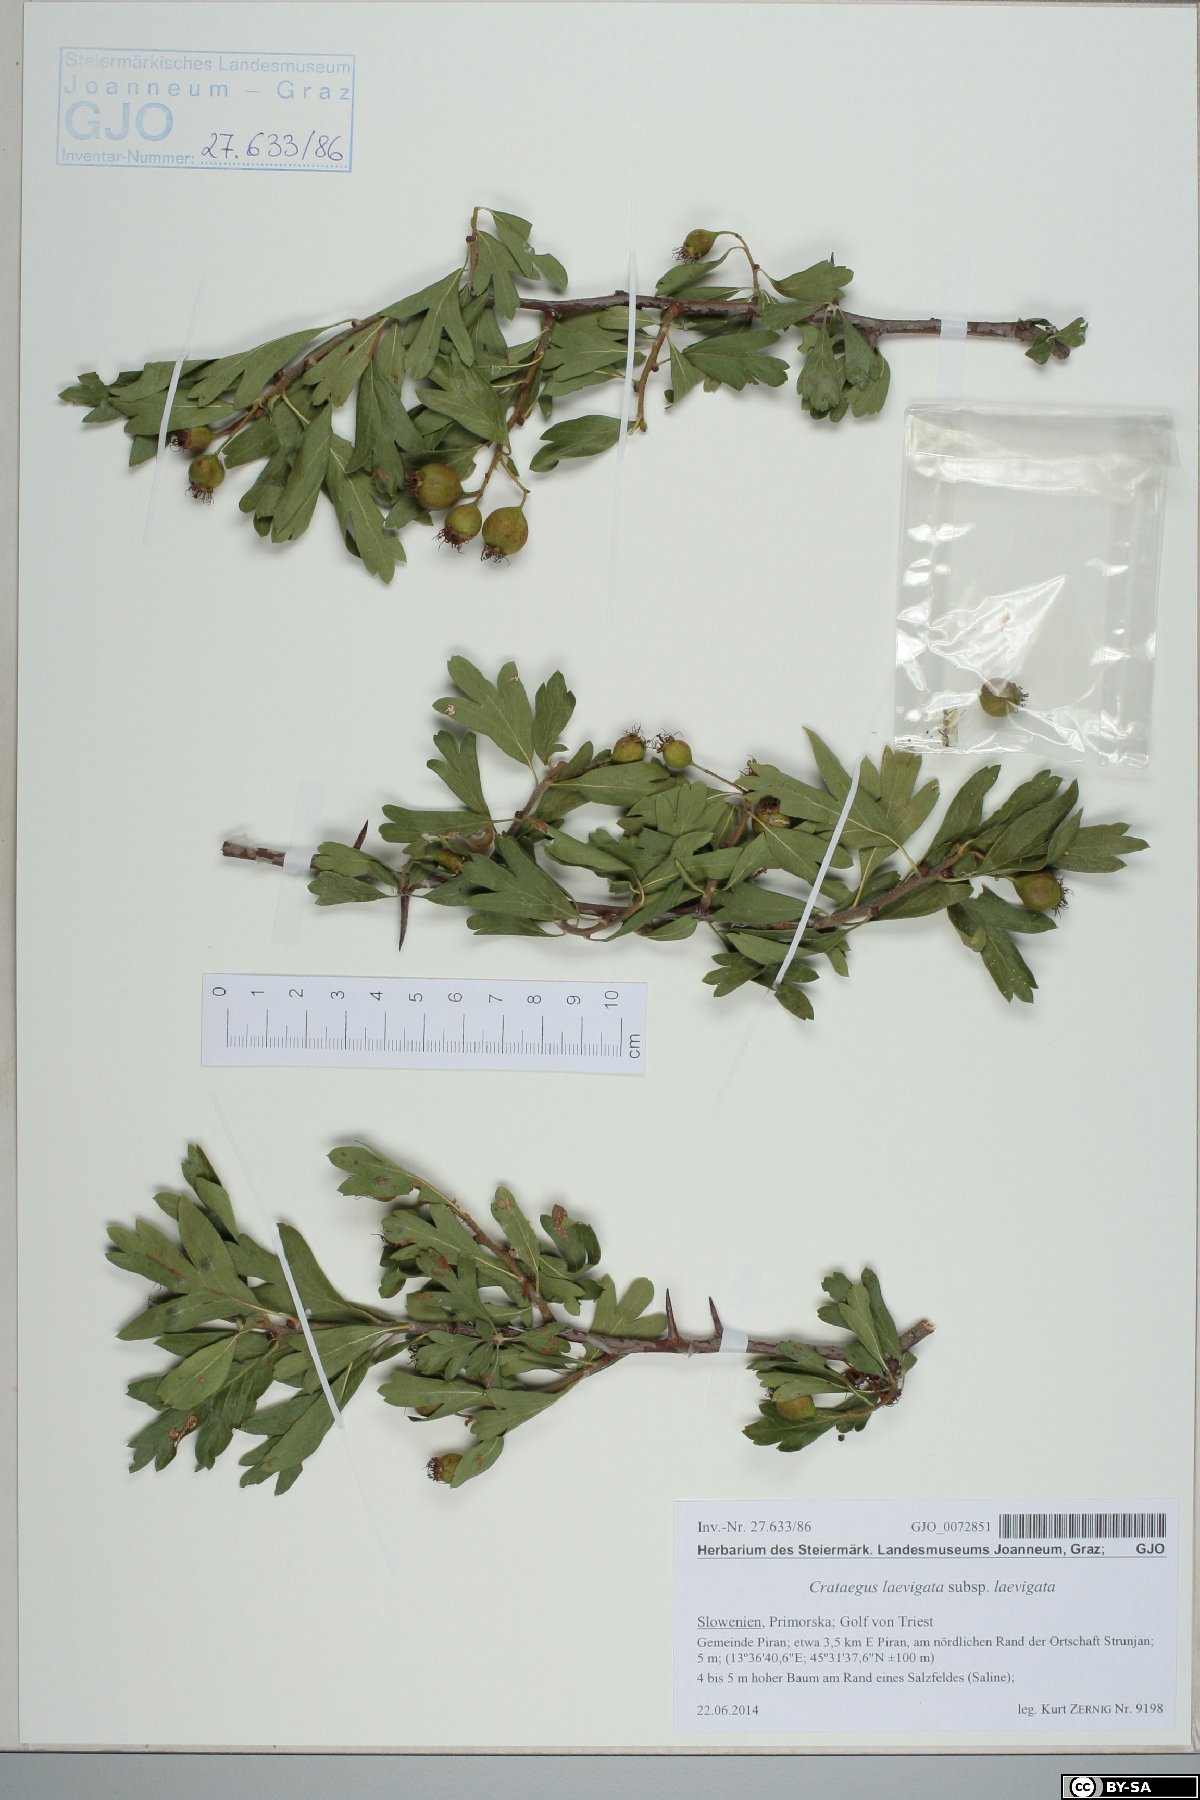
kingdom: Plantae
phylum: Tracheophyta
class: Magnoliopsida
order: Rosales
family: Rosaceae
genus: Crataegus
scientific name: Crataegus laevigata
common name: Midland hawthorn
